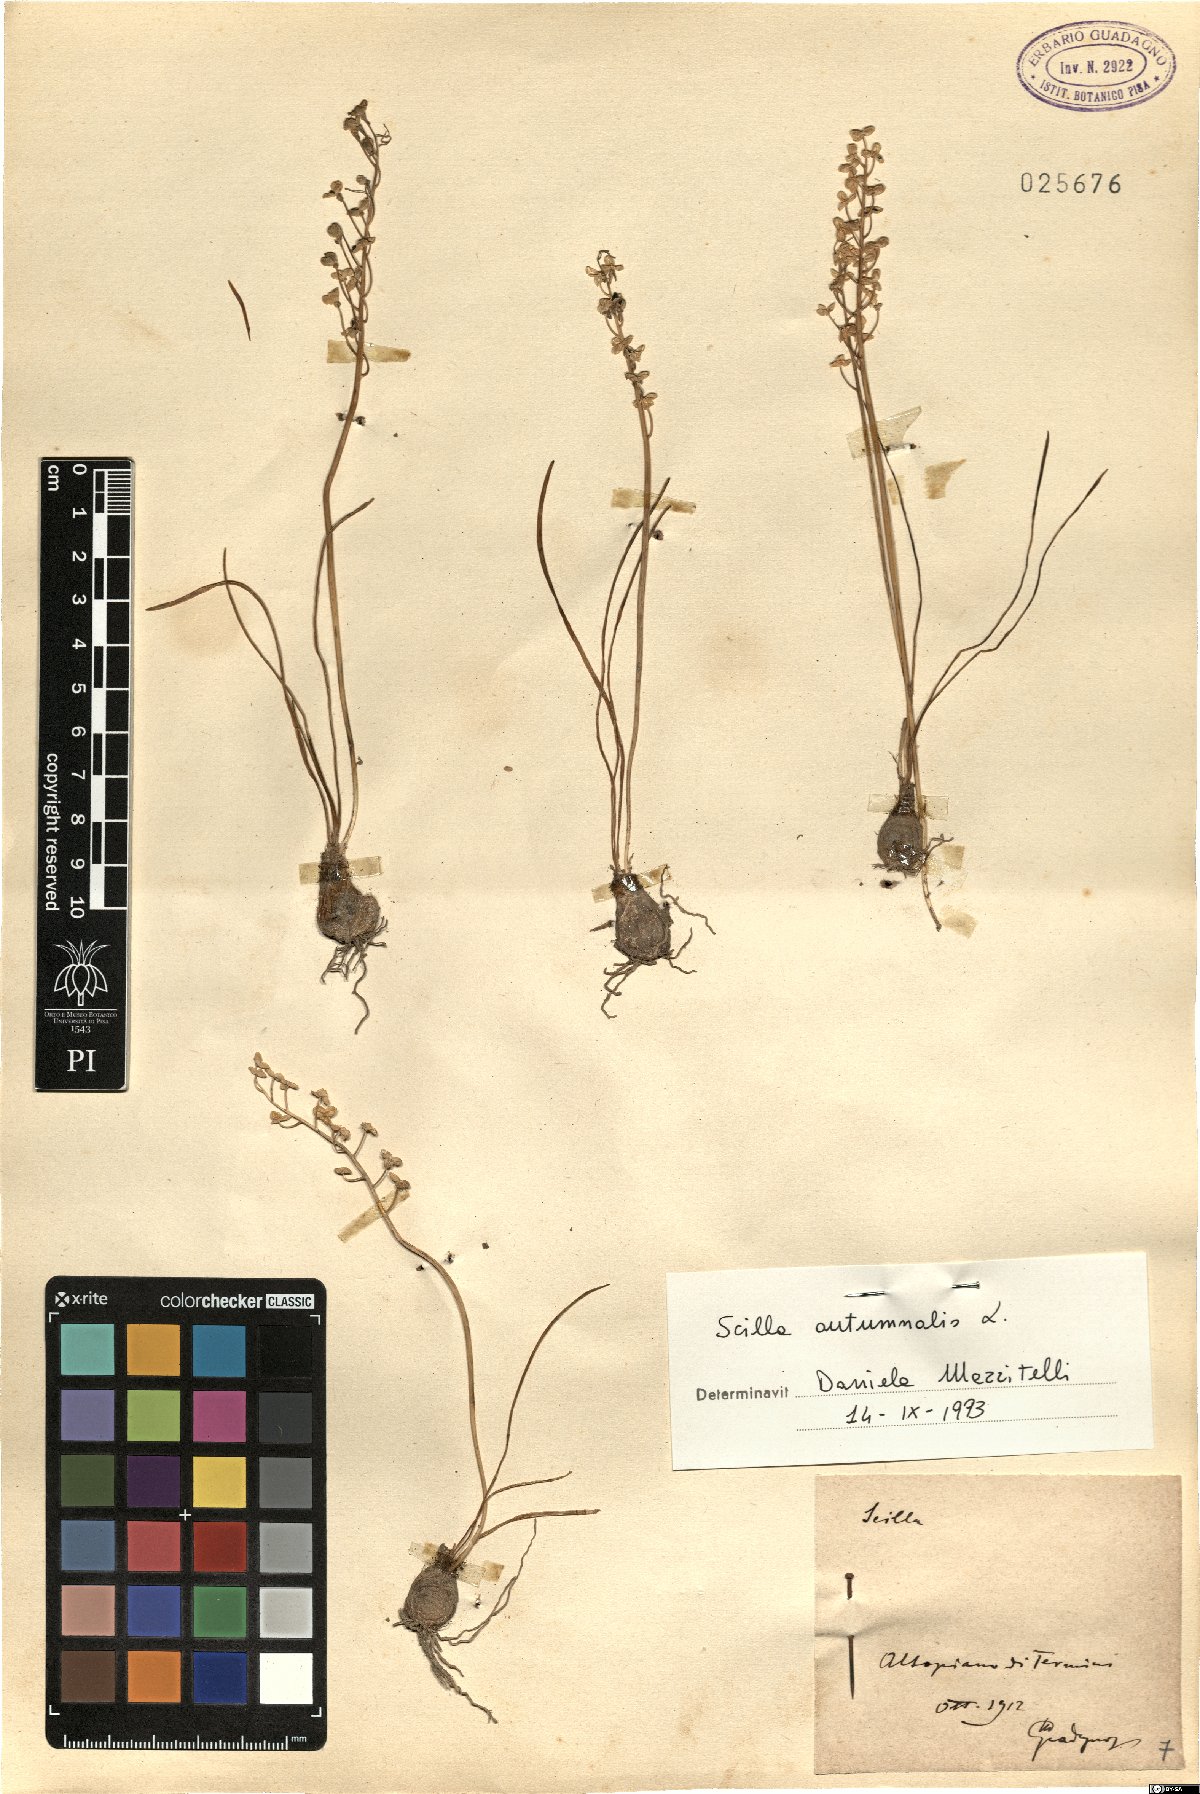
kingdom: Plantae
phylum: Tracheophyta
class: Liliopsida
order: Asparagales
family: Asparagaceae
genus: Prospero
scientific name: Prospero autumnale
